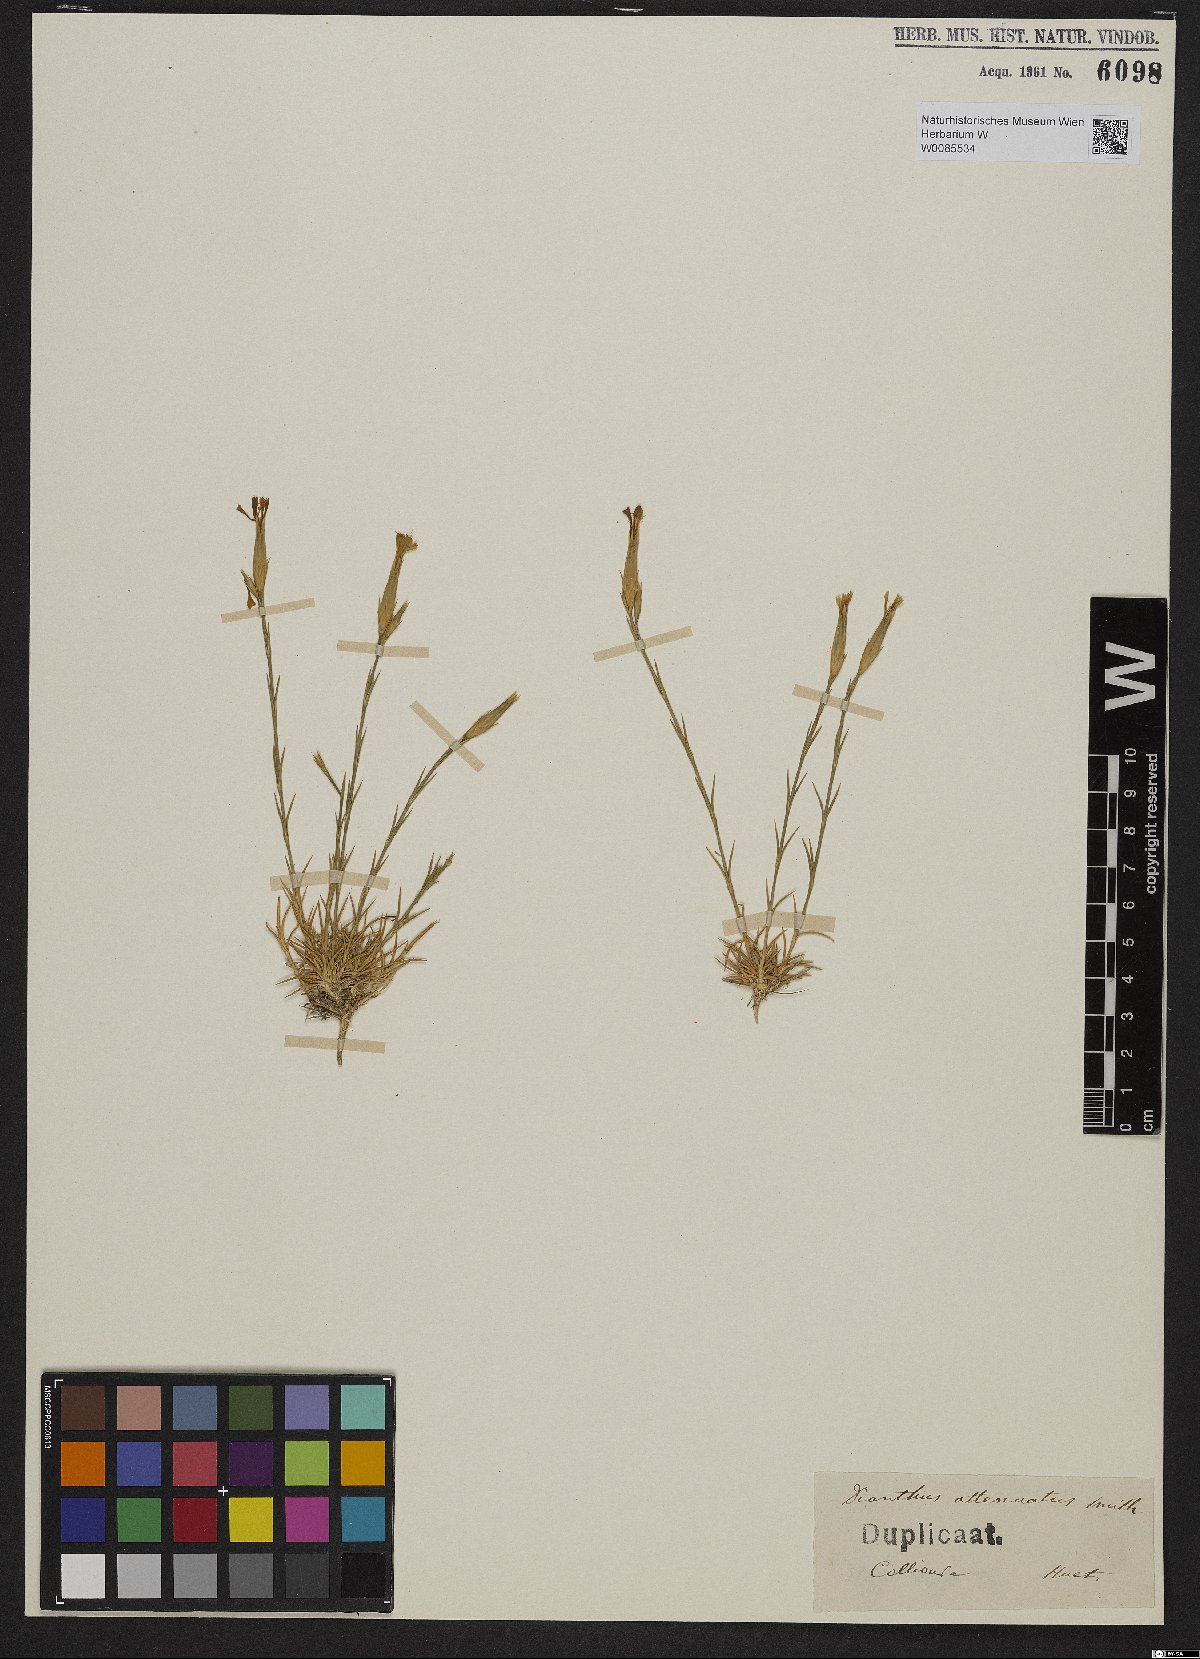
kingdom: Plantae
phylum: Tracheophyta
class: Magnoliopsida
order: Caryophyllales
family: Caryophyllaceae
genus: Dianthus
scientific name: Dianthus pyrenaicus
